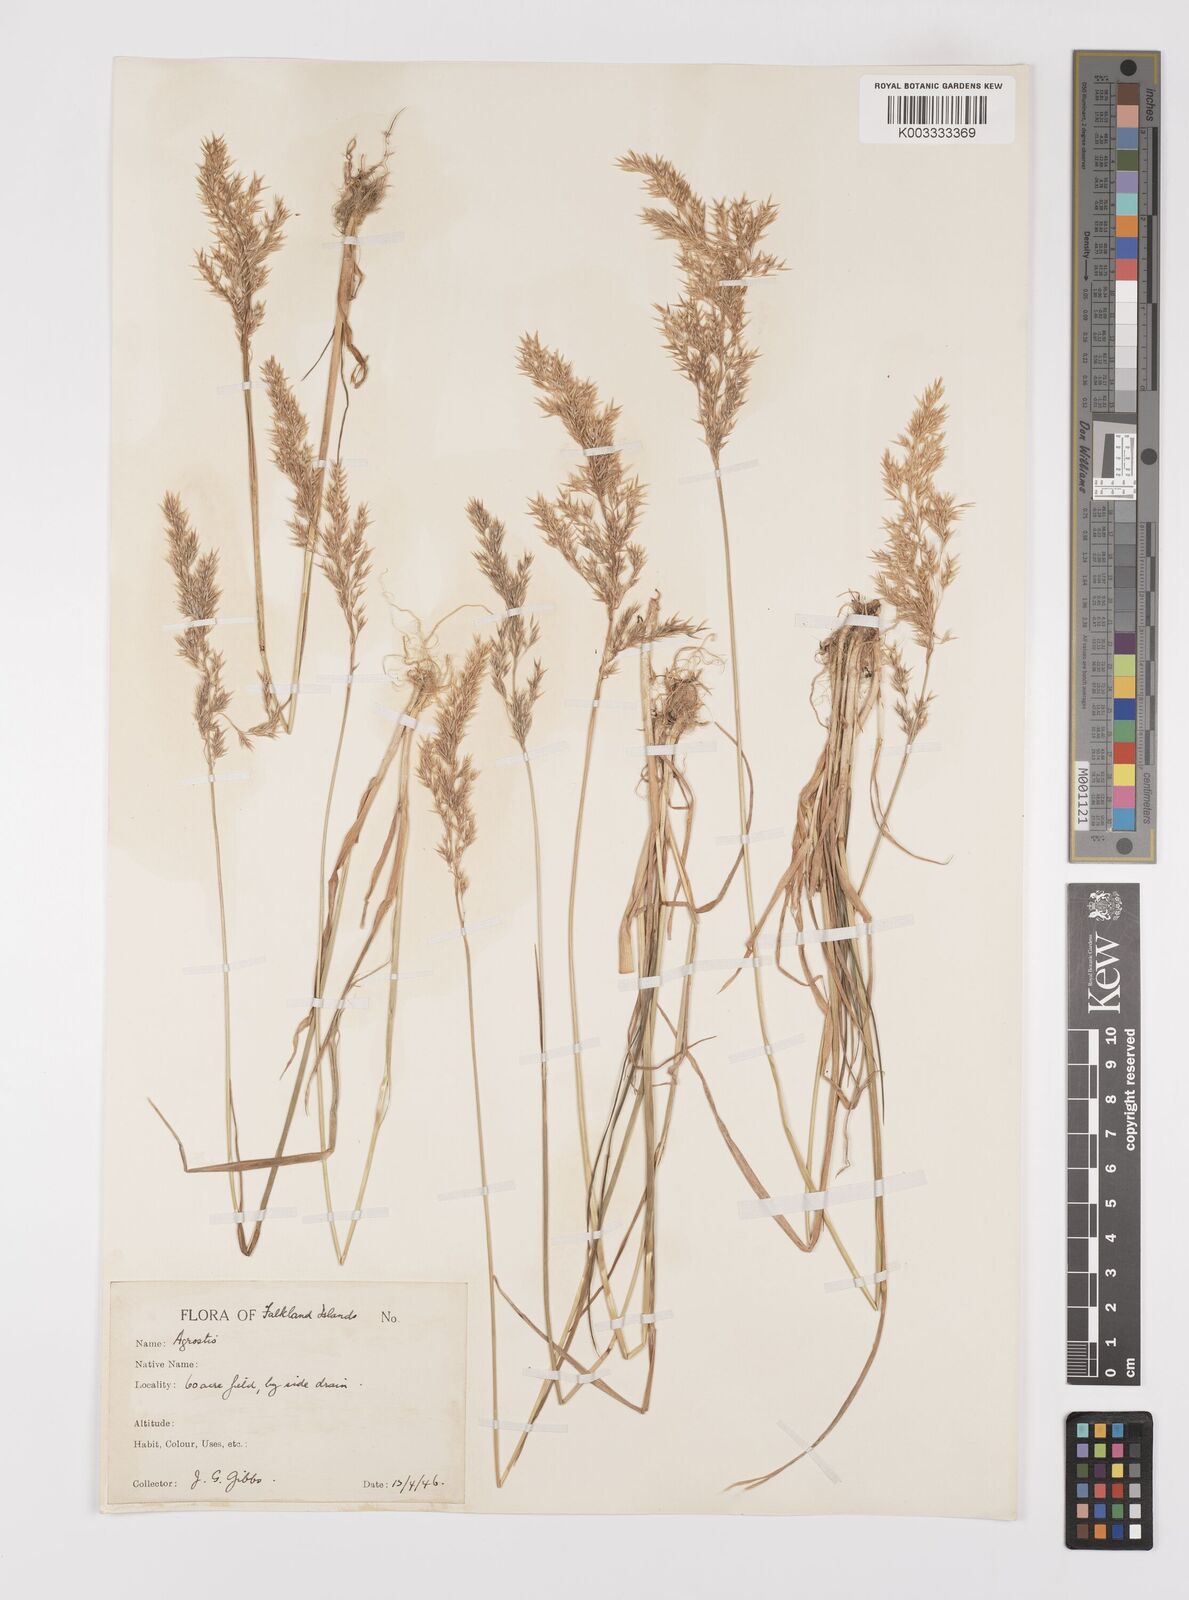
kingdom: Plantae
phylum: Tracheophyta
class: Liliopsida
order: Poales
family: Poaceae
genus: Polypogon
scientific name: Polypogon magellanicus
